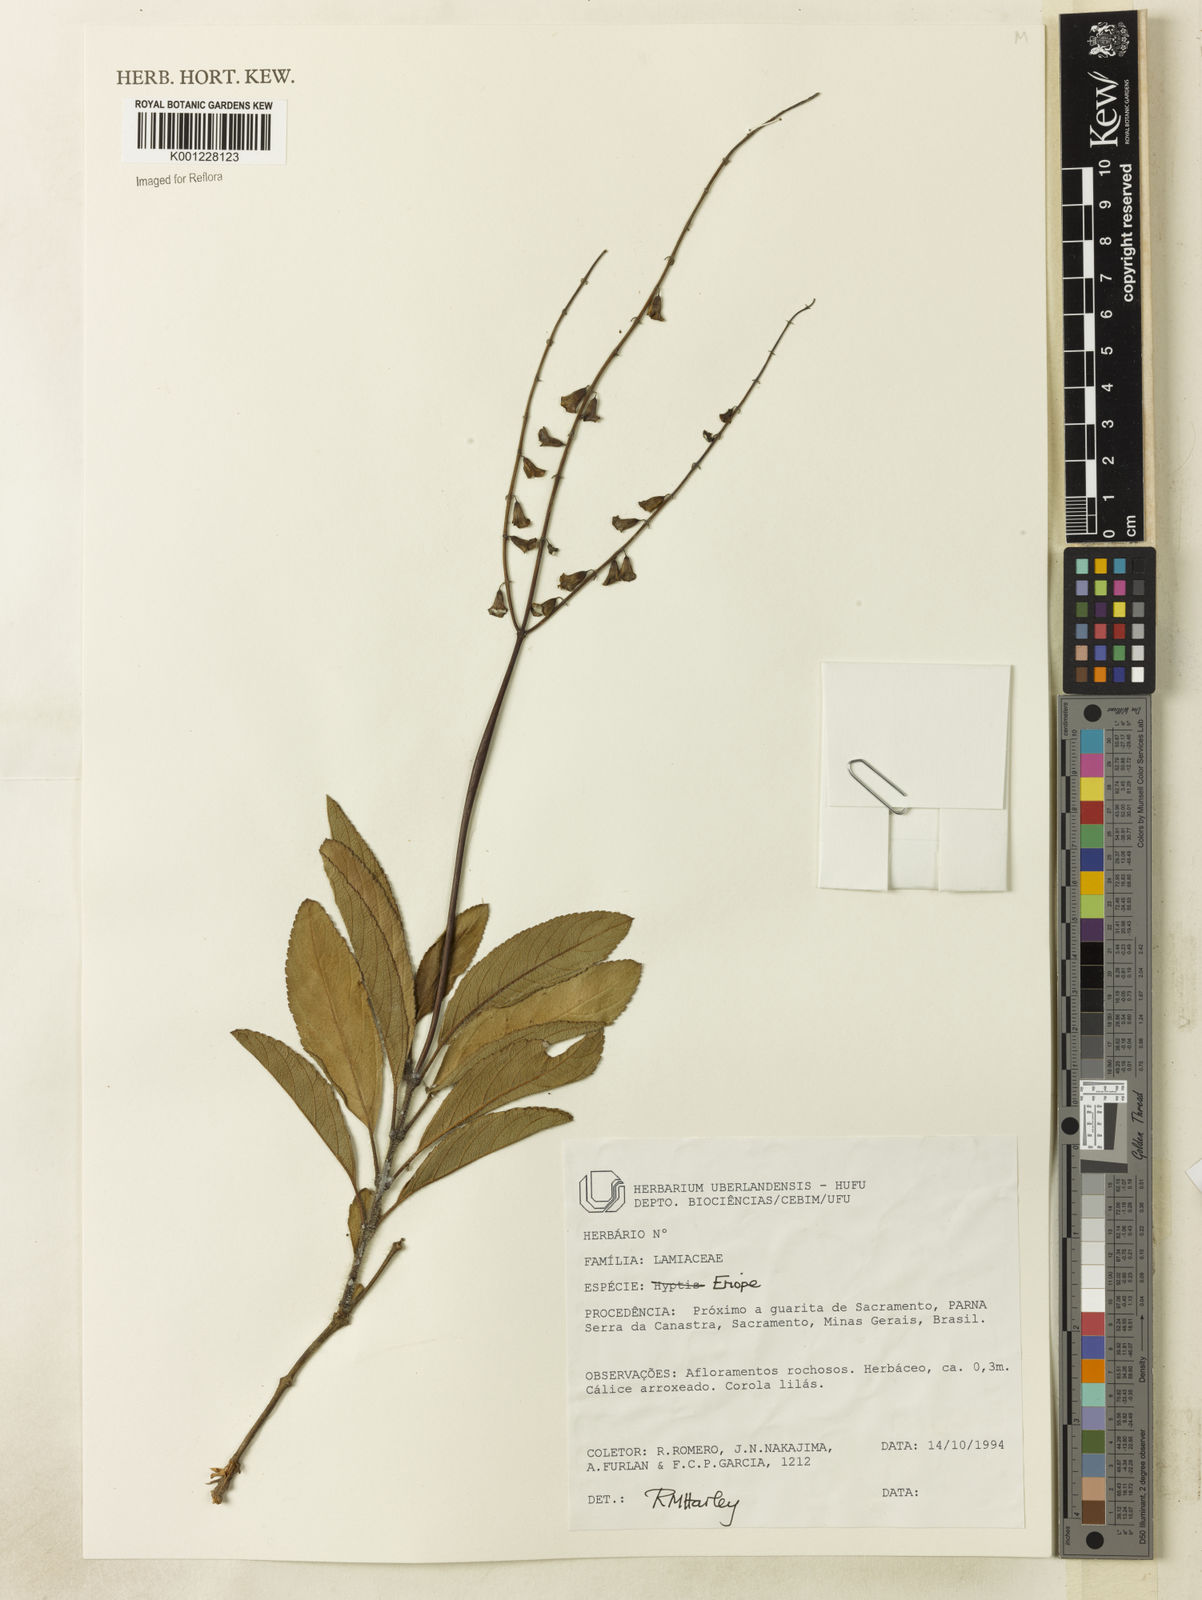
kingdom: Plantae
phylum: Tracheophyta
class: Magnoliopsida
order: Lamiales
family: Lamiaceae
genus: Eriope
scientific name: Eriope
